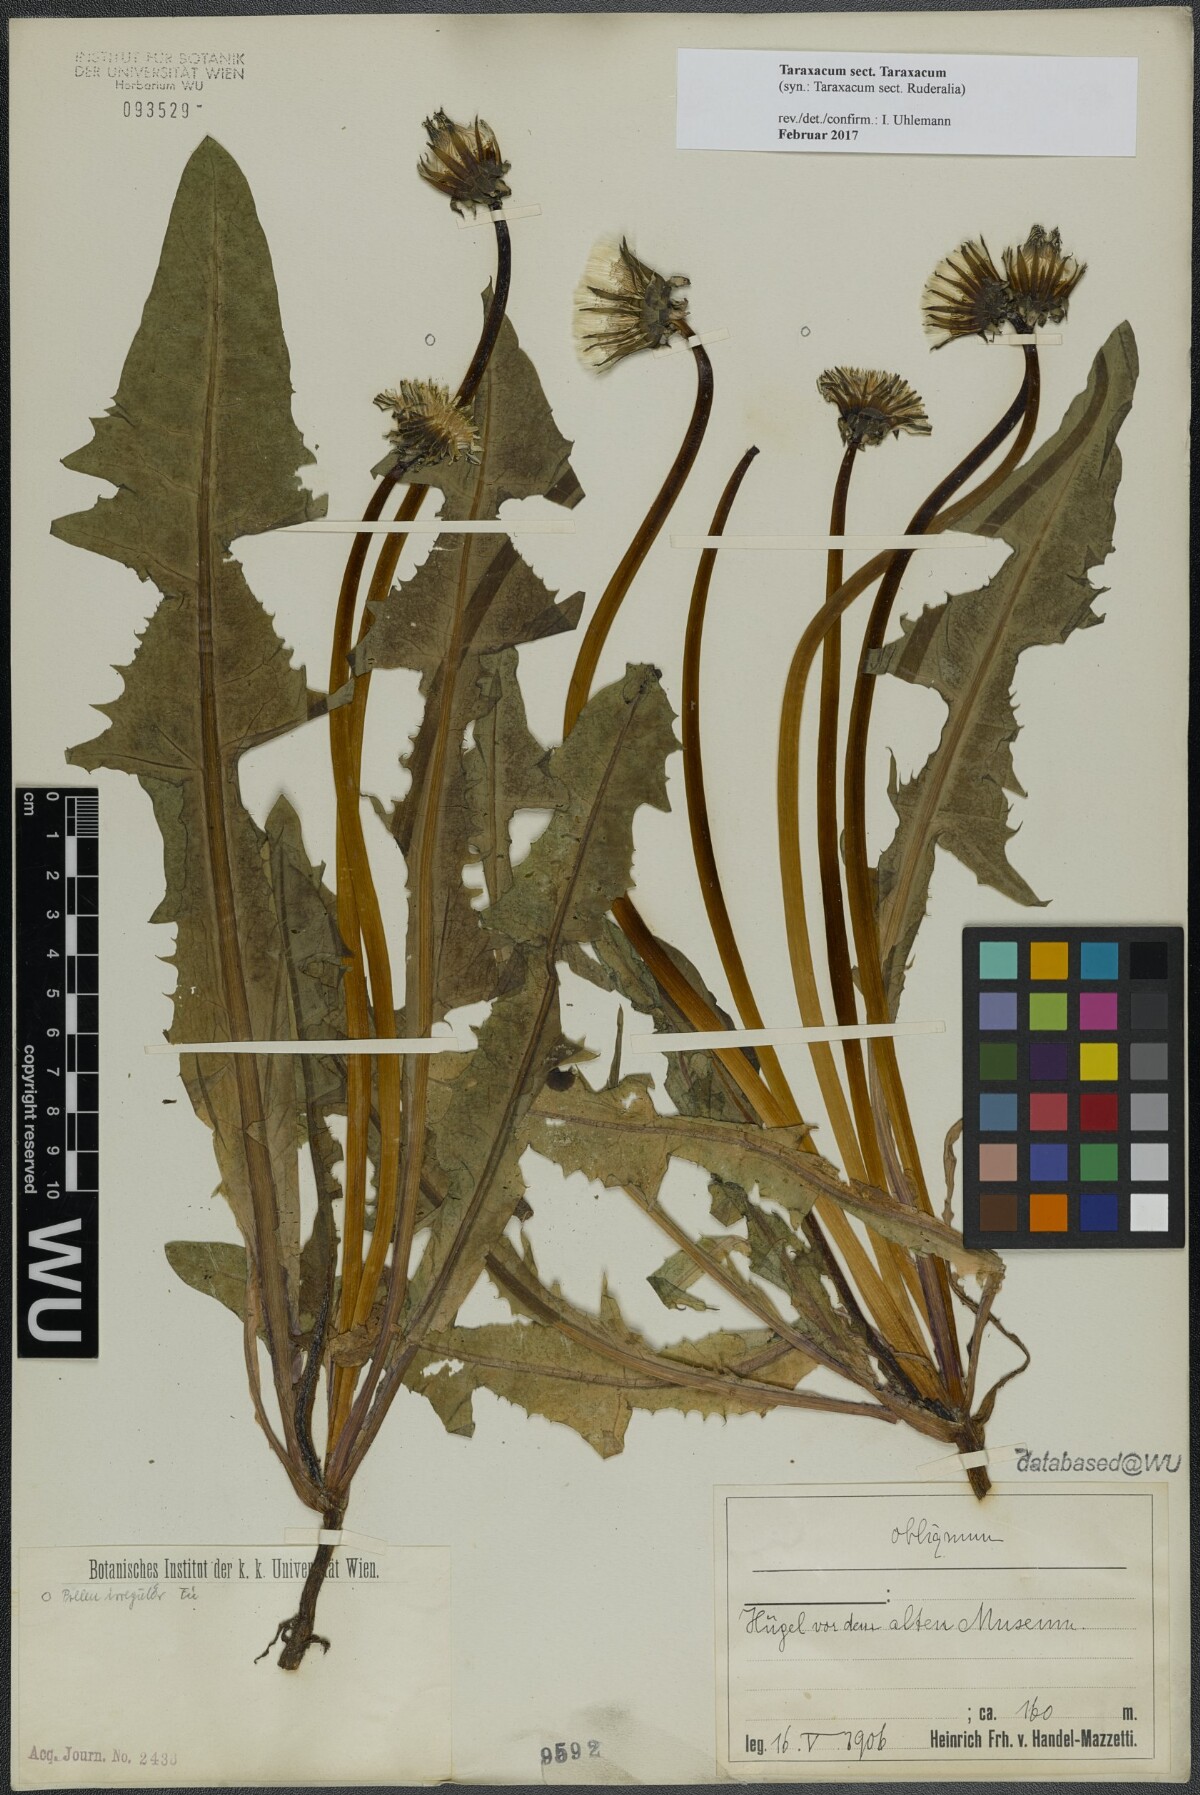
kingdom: Plantae
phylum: Tracheophyta
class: Magnoliopsida
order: Asterales
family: Asteraceae
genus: Taraxacum
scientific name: Taraxacum
